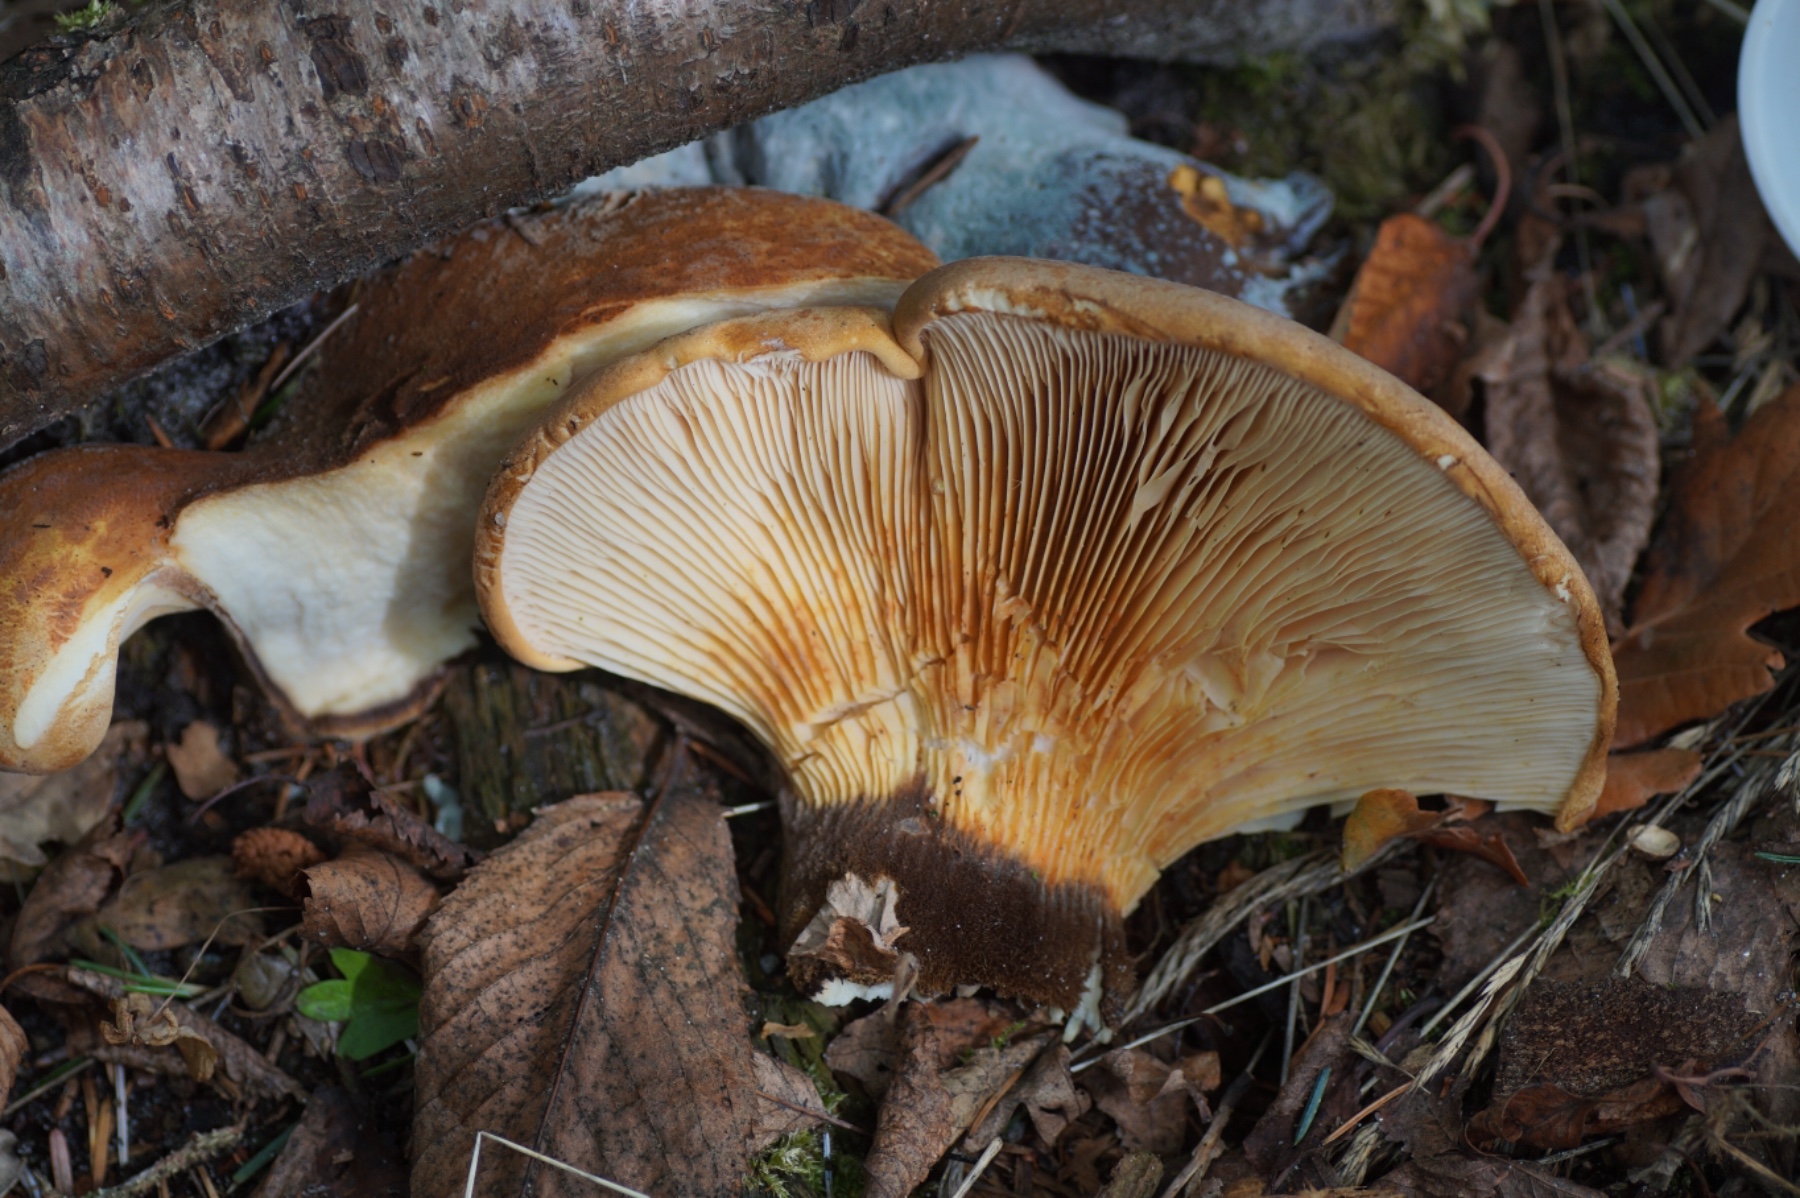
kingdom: Fungi
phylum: Basidiomycota
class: Agaricomycetes
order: Boletales
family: Tapinellaceae
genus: Tapinella
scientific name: Tapinella atrotomentosa
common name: sortfiltet viftesvamp
